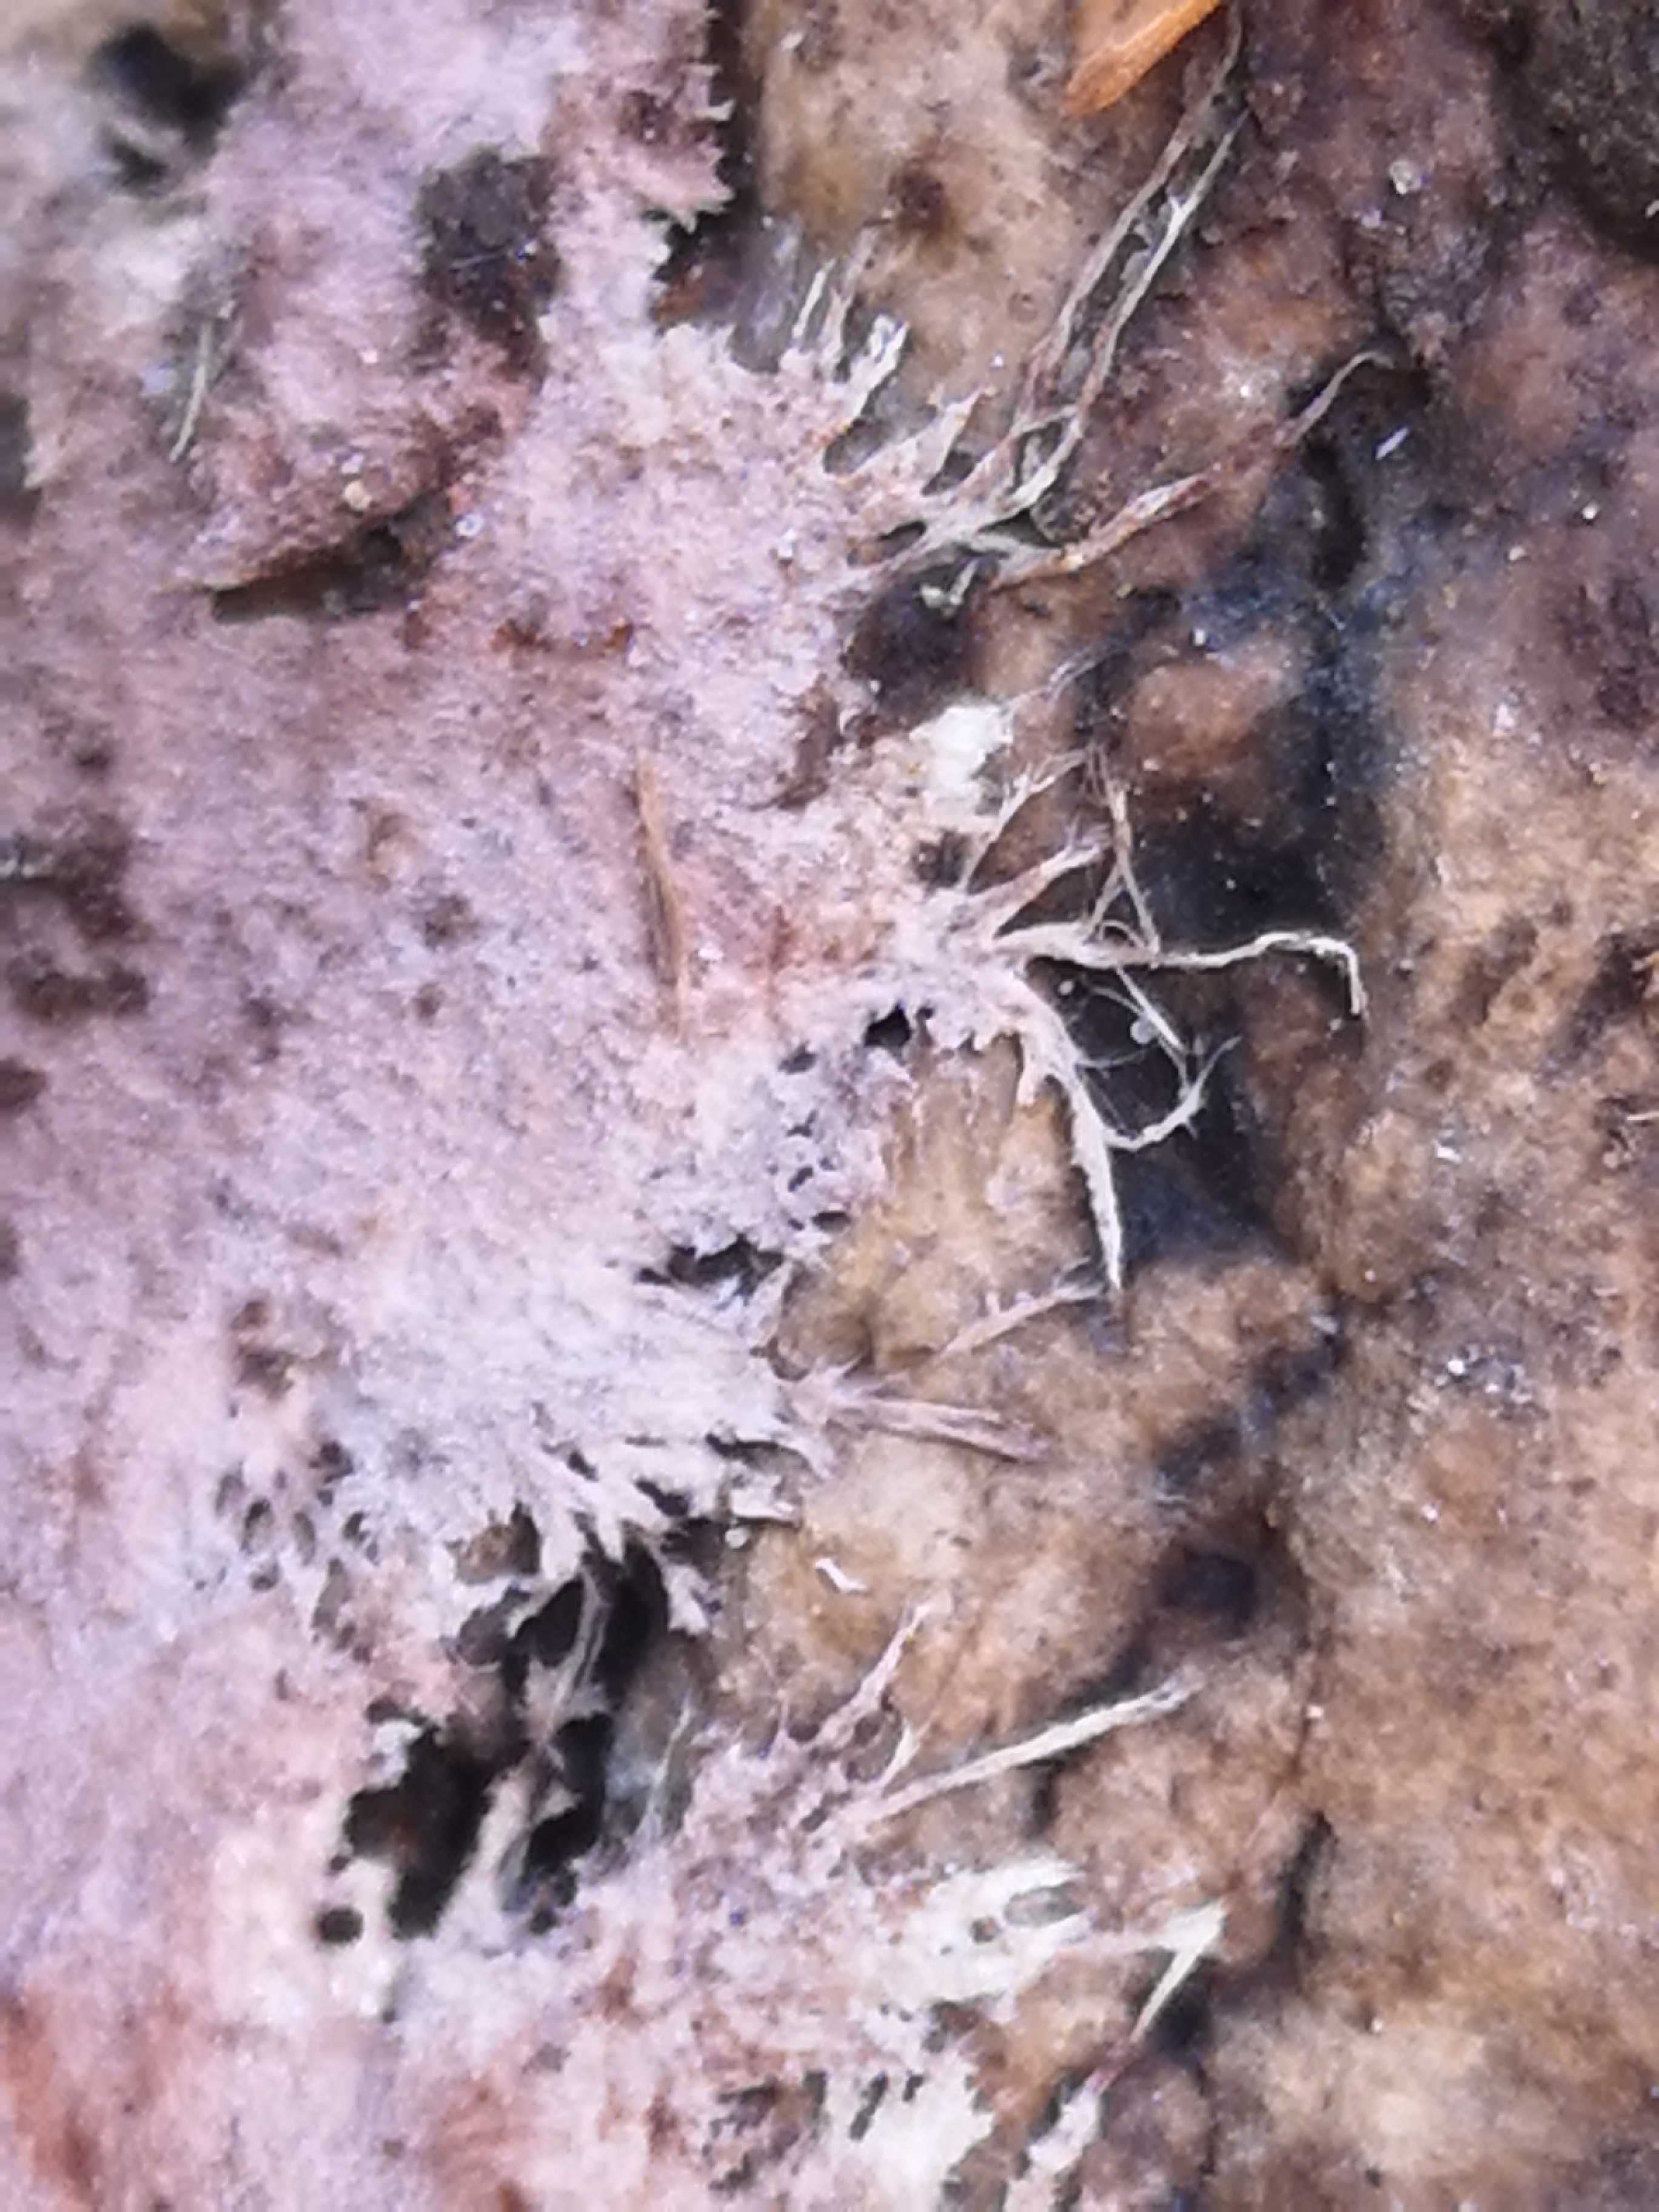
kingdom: Fungi
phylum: Basidiomycota
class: Agaricomycetes
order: Polyporales
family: Steccherinaceae
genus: Steccherinum
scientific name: Steccherinum fimbriatum
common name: trådet skønpig
